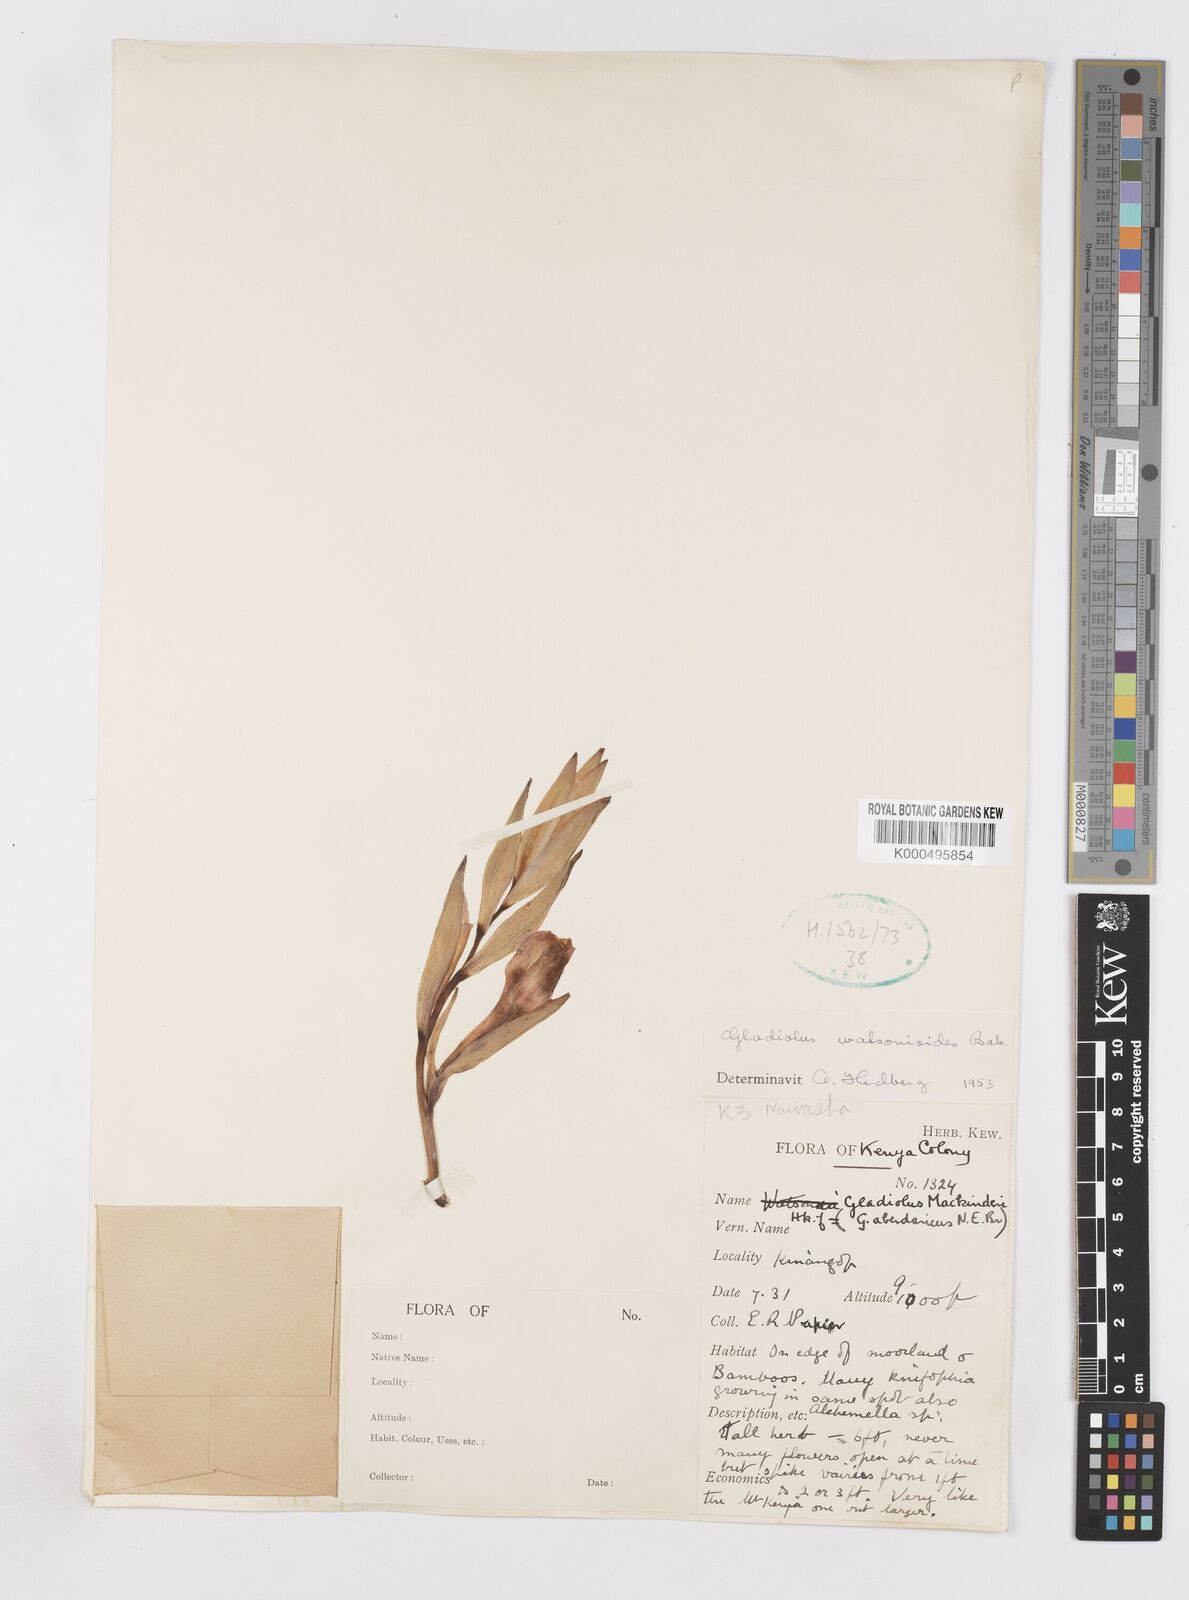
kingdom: Plantae
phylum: Tracheophyta
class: Liliopsida
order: Asparagales
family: Iridaceae
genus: Gladiolus
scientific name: Gladiolus watsonioides
